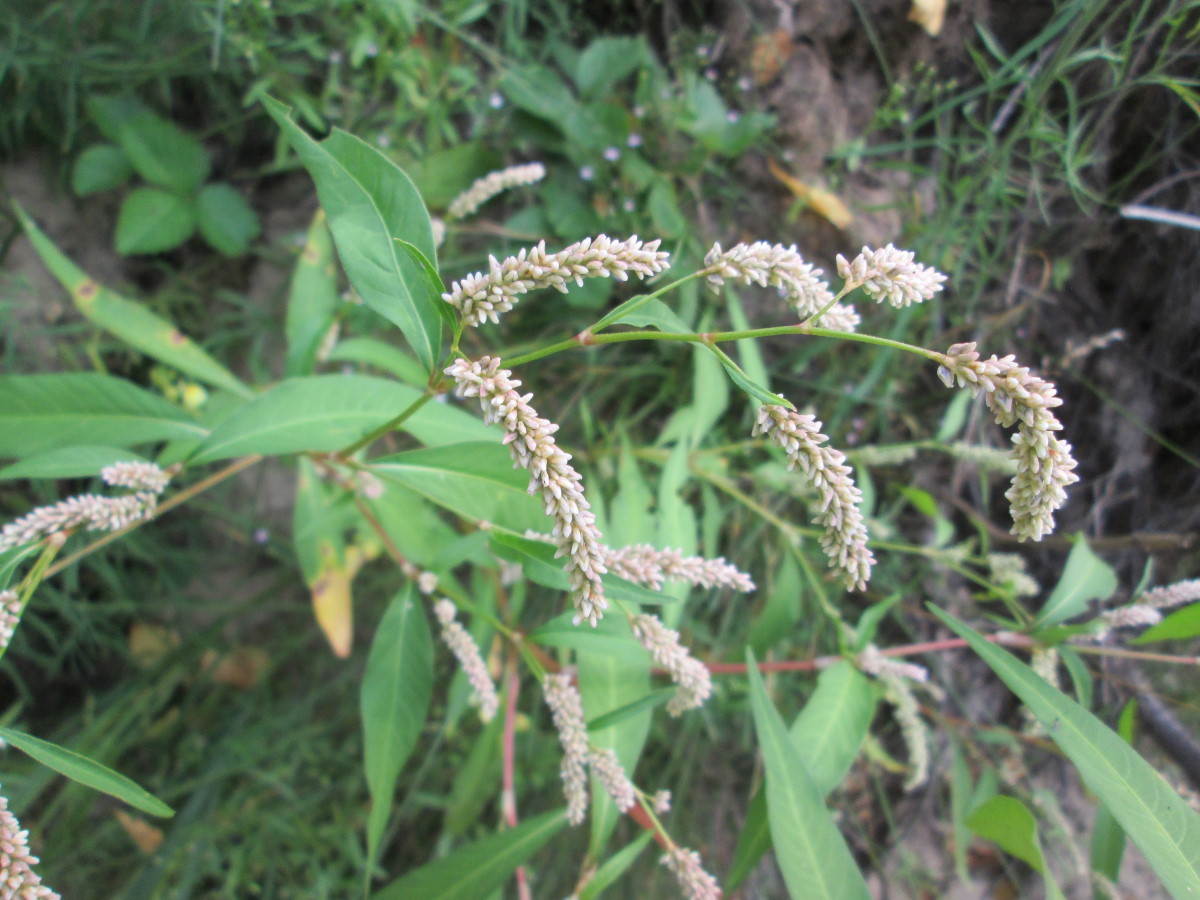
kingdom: Plantae
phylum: Tracheophyta
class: Magnoliopsida
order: Caryophyllales
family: Polygonaceae
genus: Persicaria
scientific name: Persicaria lapathifolia
